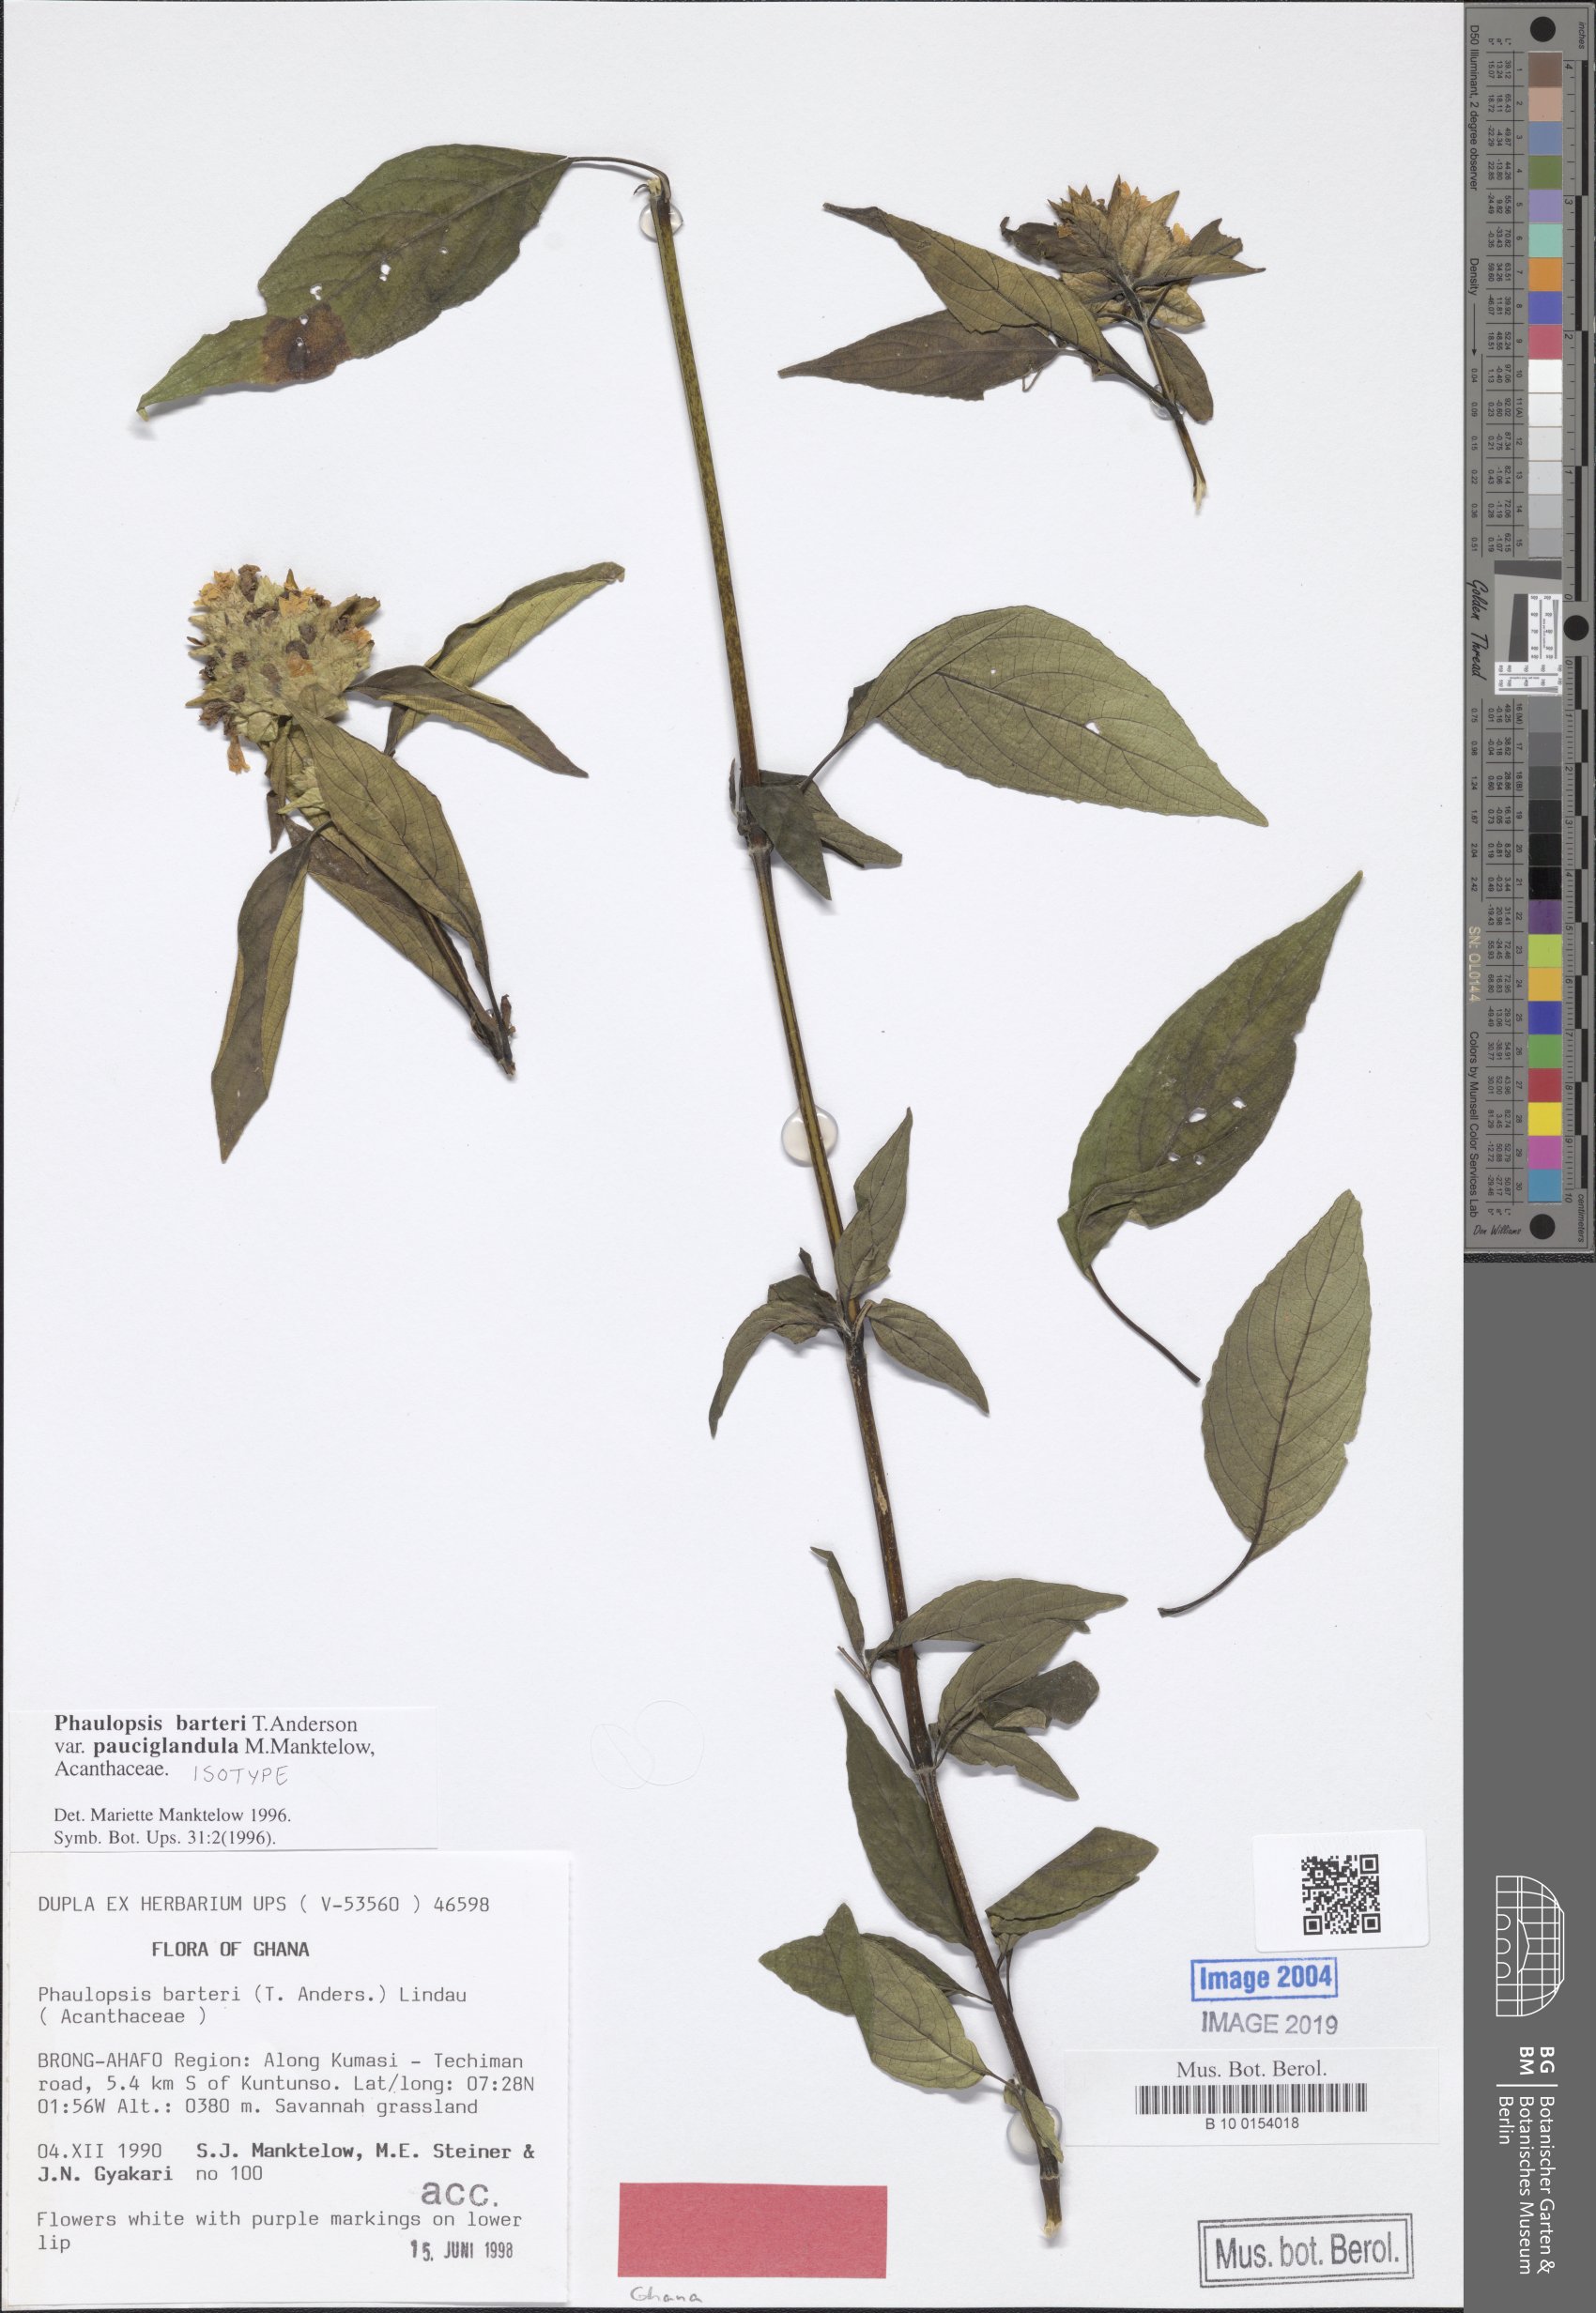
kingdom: Plantae
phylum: Tracheophyta
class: Magnoliopsida
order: Lamiales
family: Acanthaceae
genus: Phaulopsis
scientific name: Phaulopsis barteri
